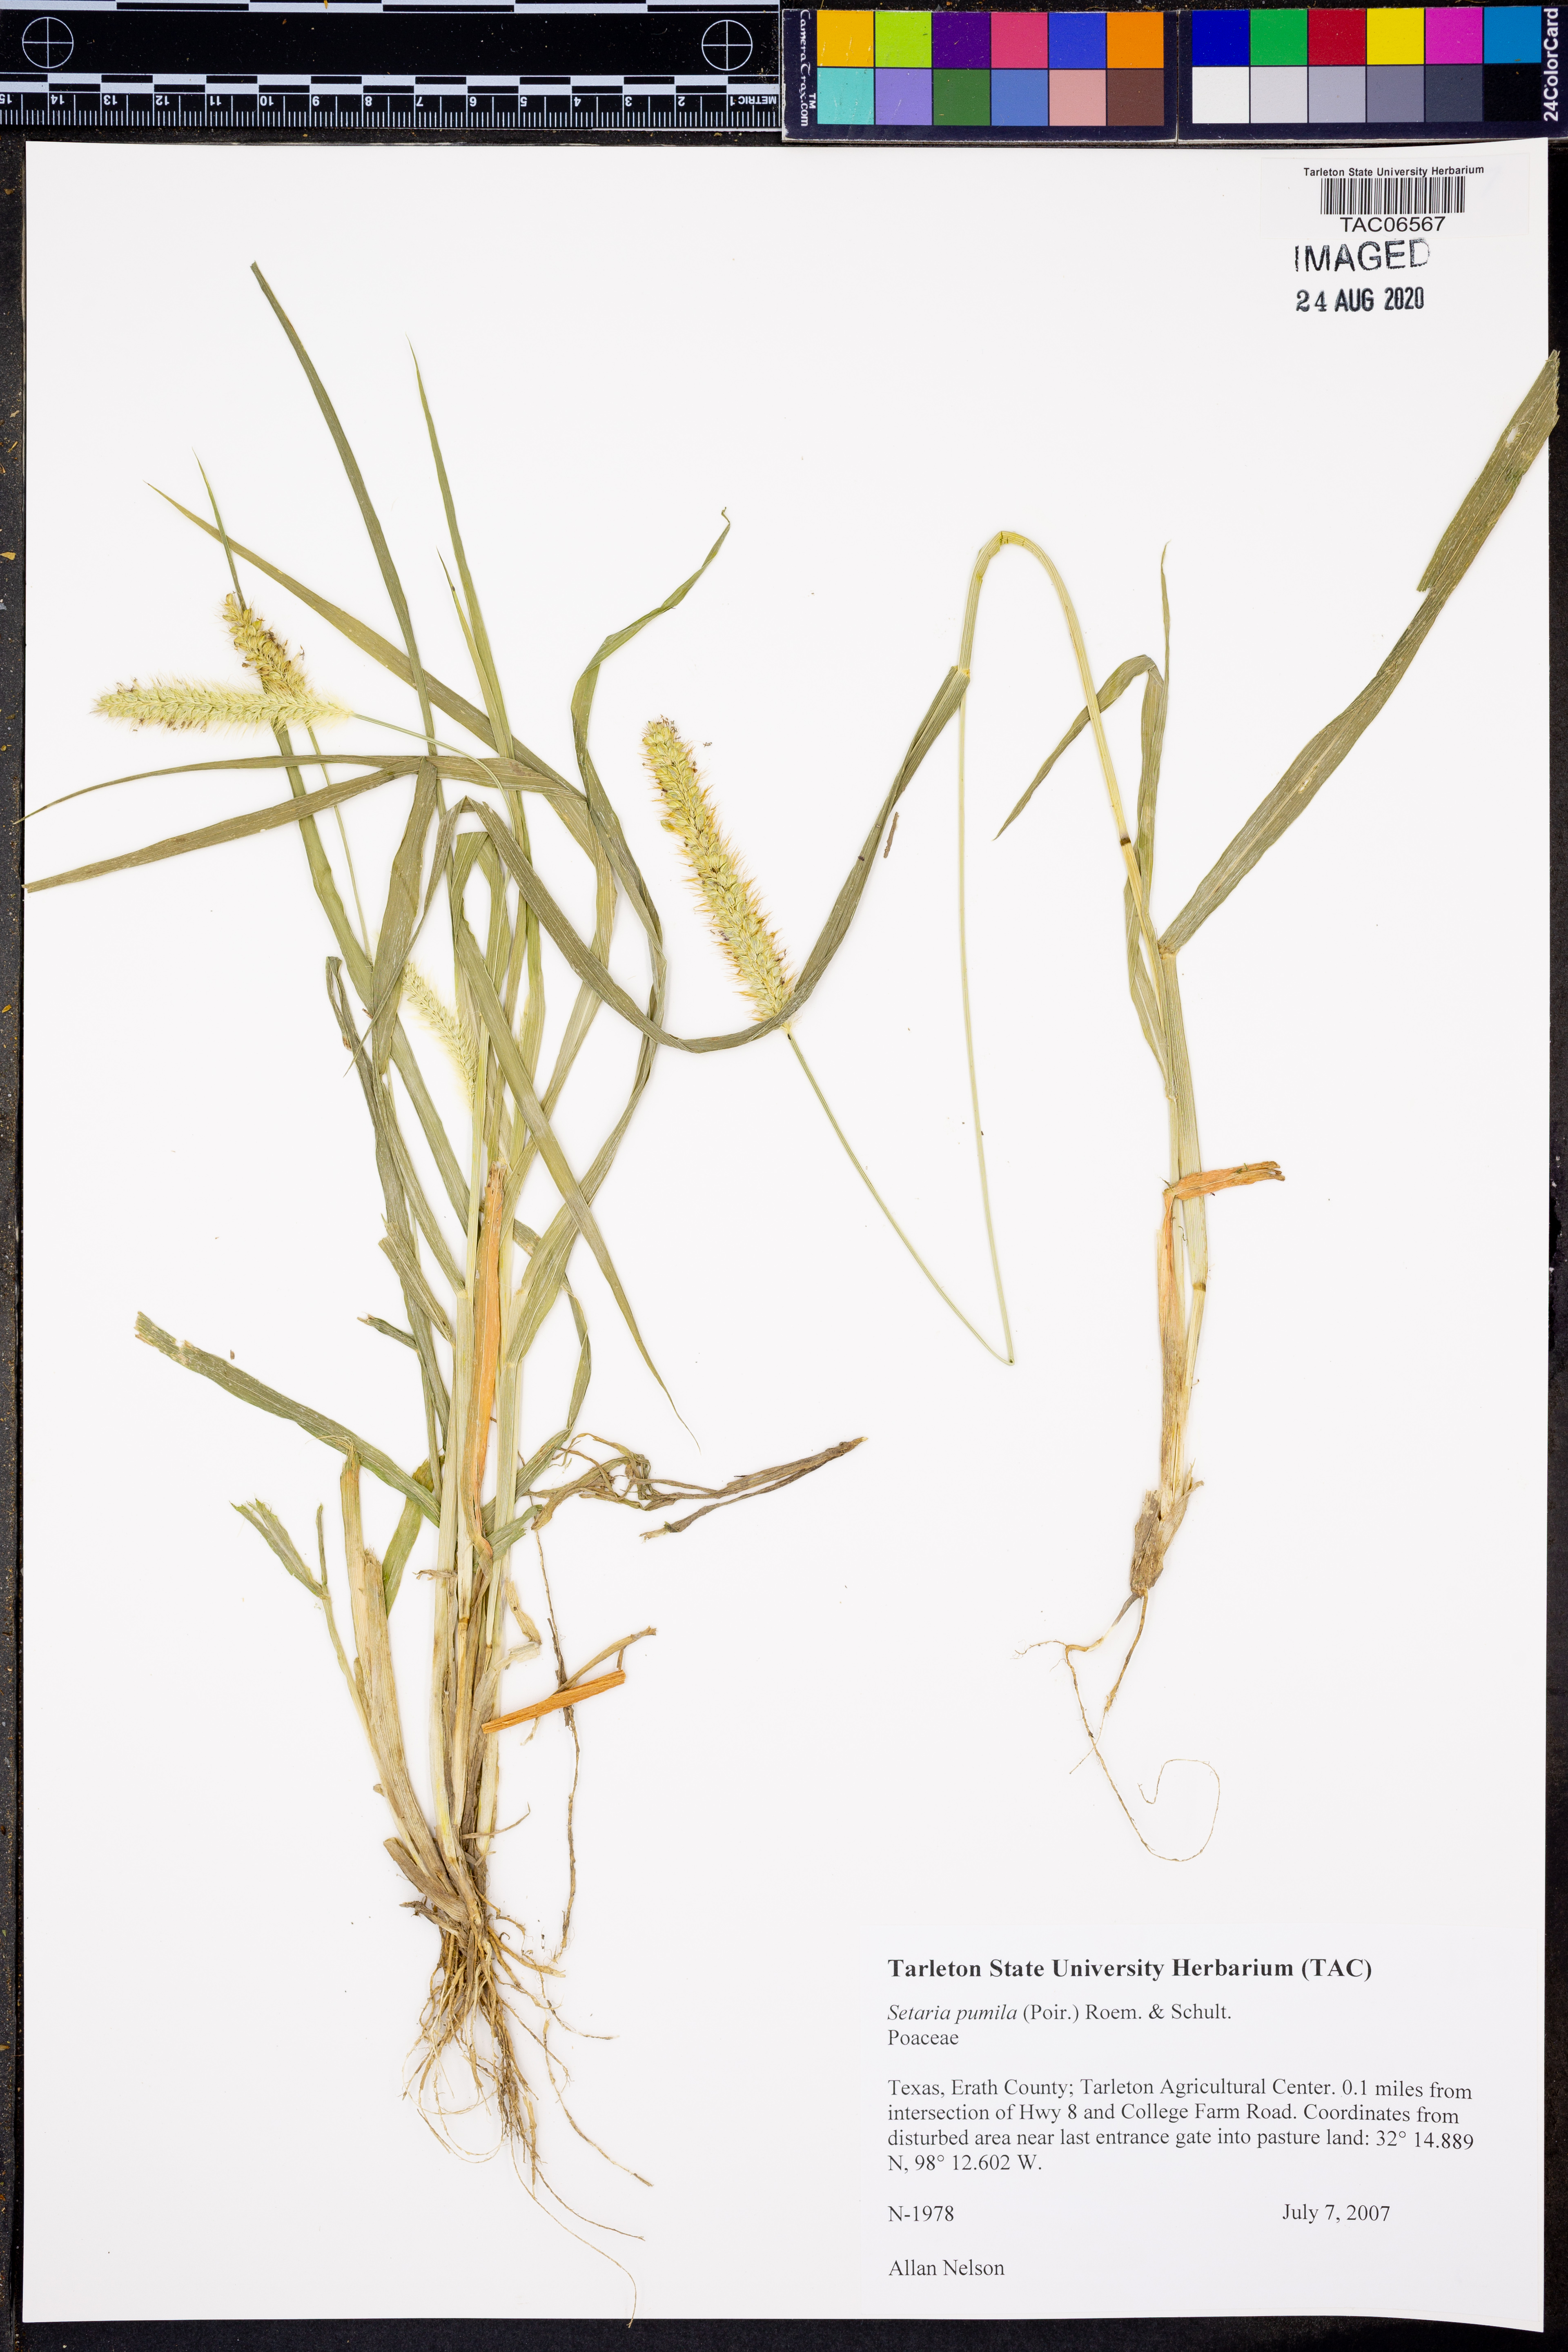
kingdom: Plantae
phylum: Tracheophyta
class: Liliopsida
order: Poales
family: Poaceae
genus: Setaria
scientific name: Setaria pumila
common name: Yellow bristle-grass
